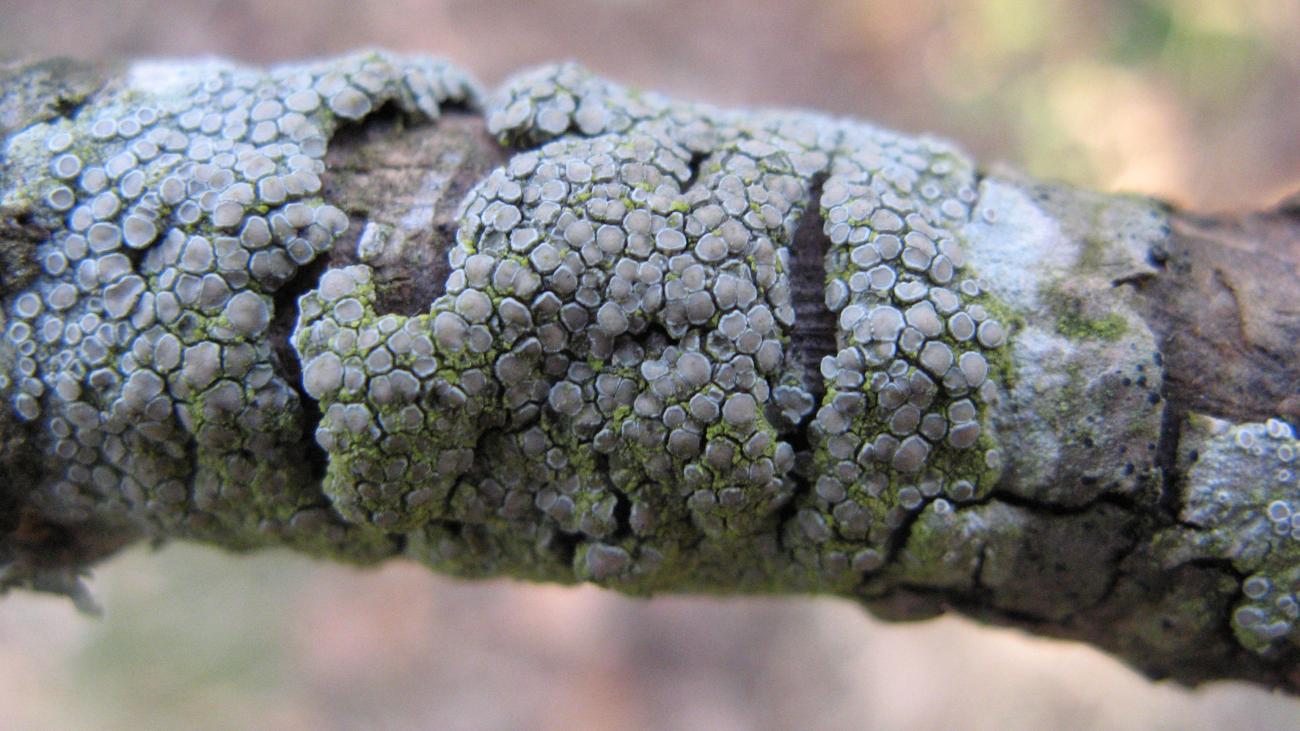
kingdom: Fungi
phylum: Ascomycota
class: Lecanoromycetes
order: Lecanorales
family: Lecanoraceae
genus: Lecanora
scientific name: Lecanora chlarotera
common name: brun kantskivelav
